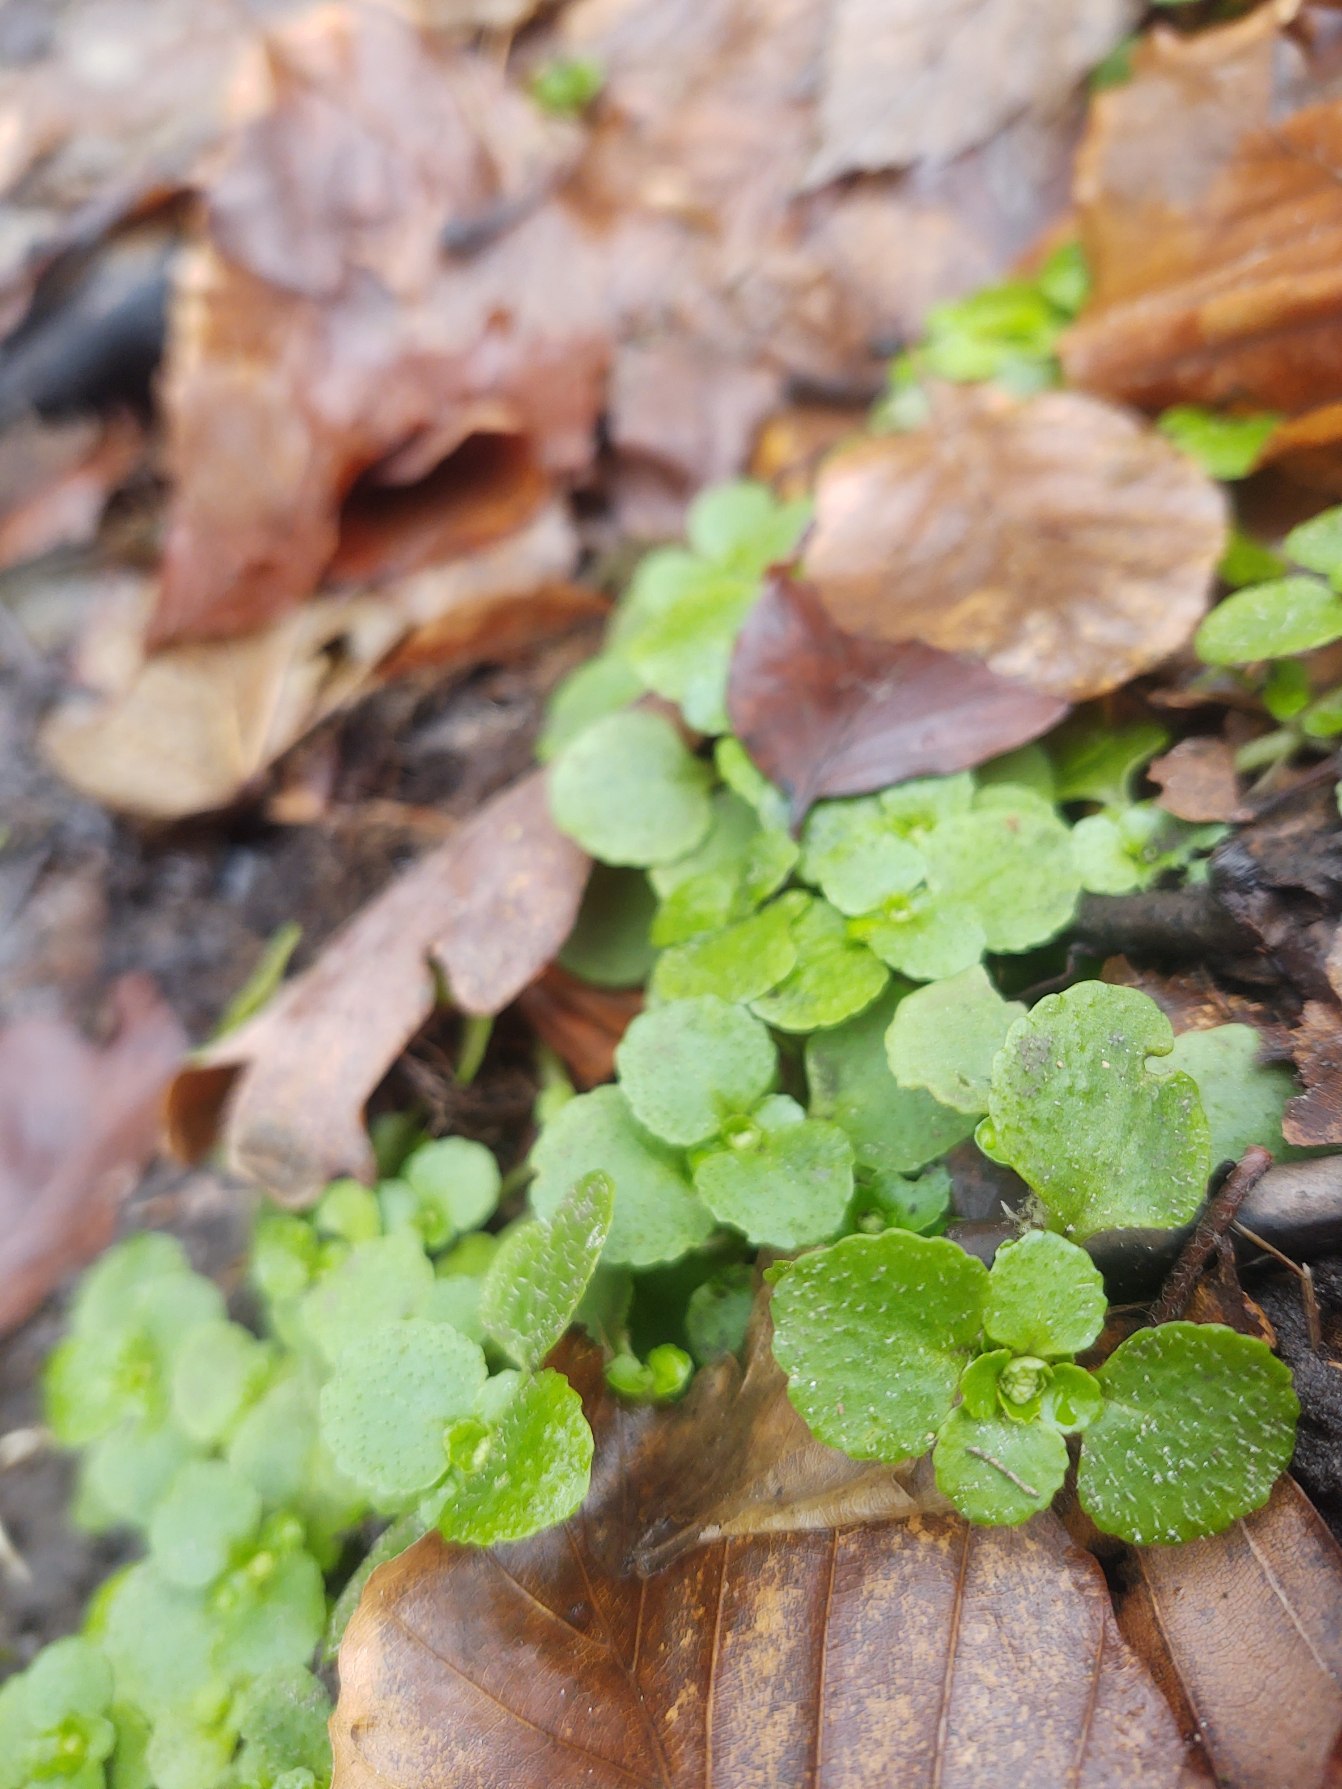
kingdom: Plantae
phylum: Tracheophyta
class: Magnoliopsida
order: Saxifragales
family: Saxifragaceae
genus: Chrysosplenium
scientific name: Chrysosplenium oppositifolium
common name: Småbladet milturt
